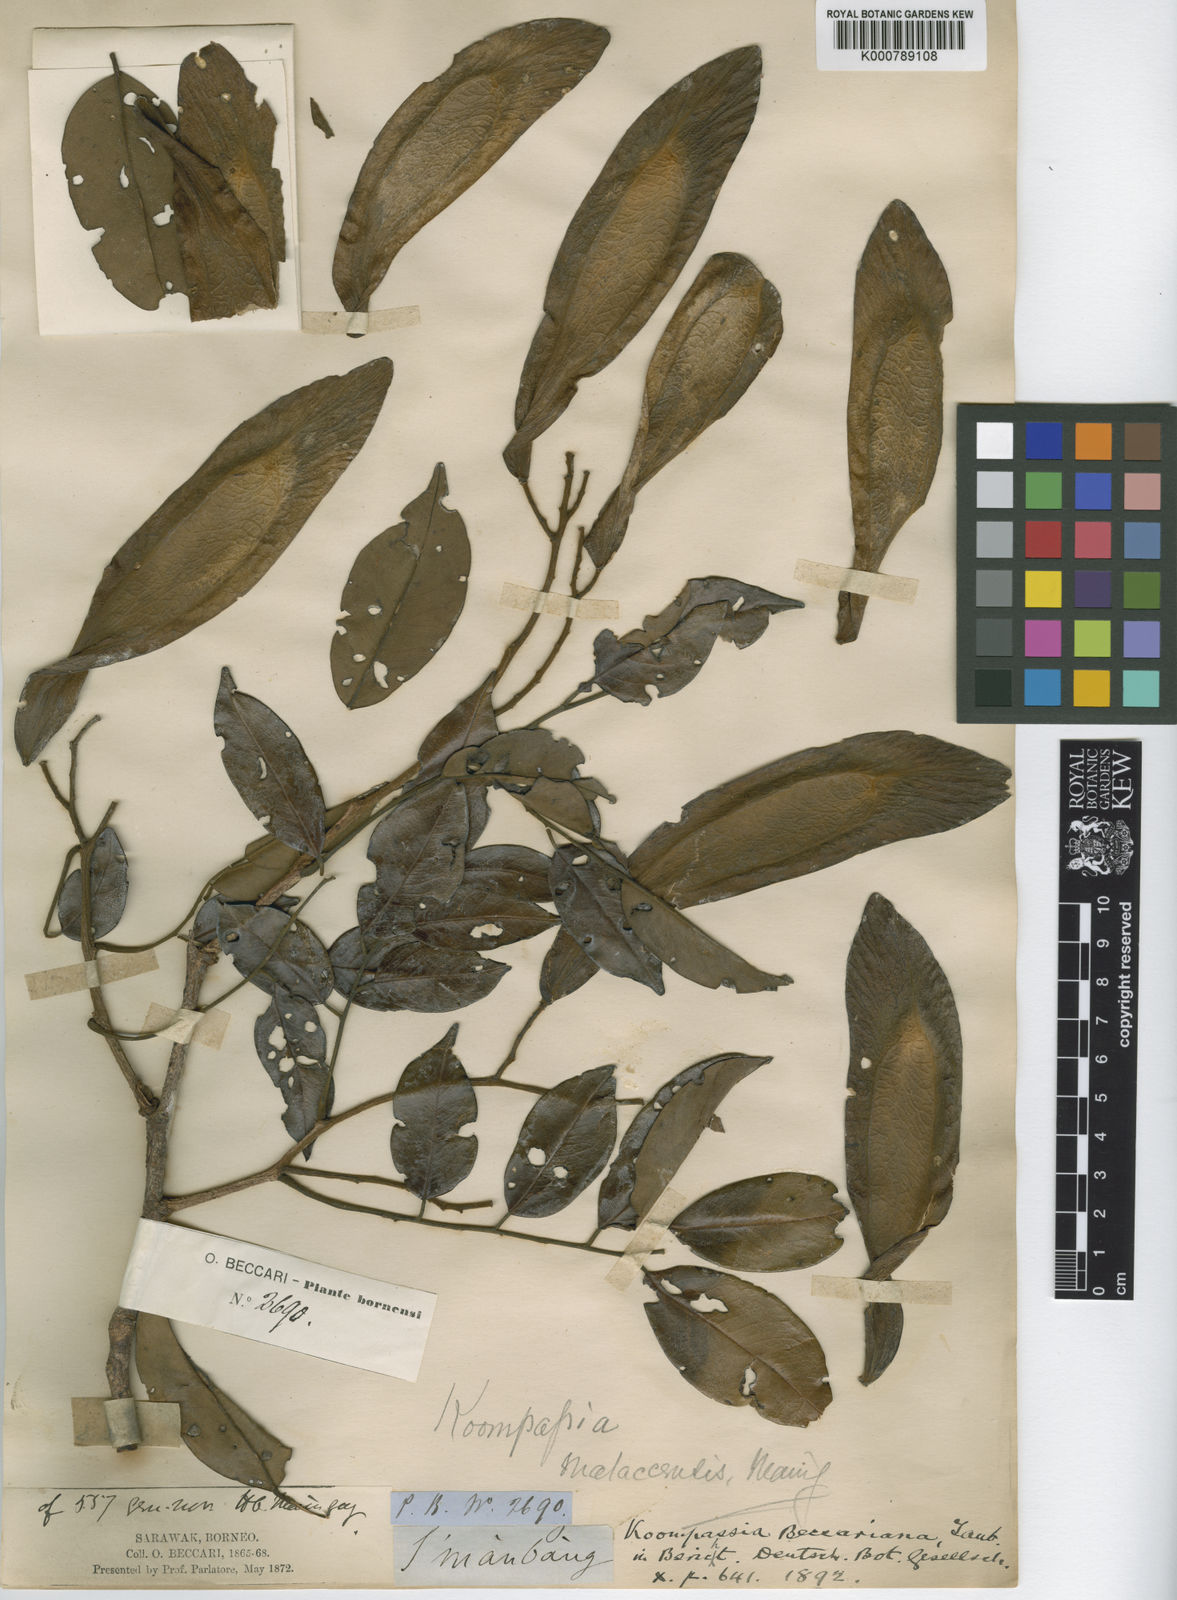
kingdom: Plantae
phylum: Tracheophyta
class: Magnoliopsida
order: Fabales
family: Fabaceae
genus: Koompassia
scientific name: Koompassia malaccensis
